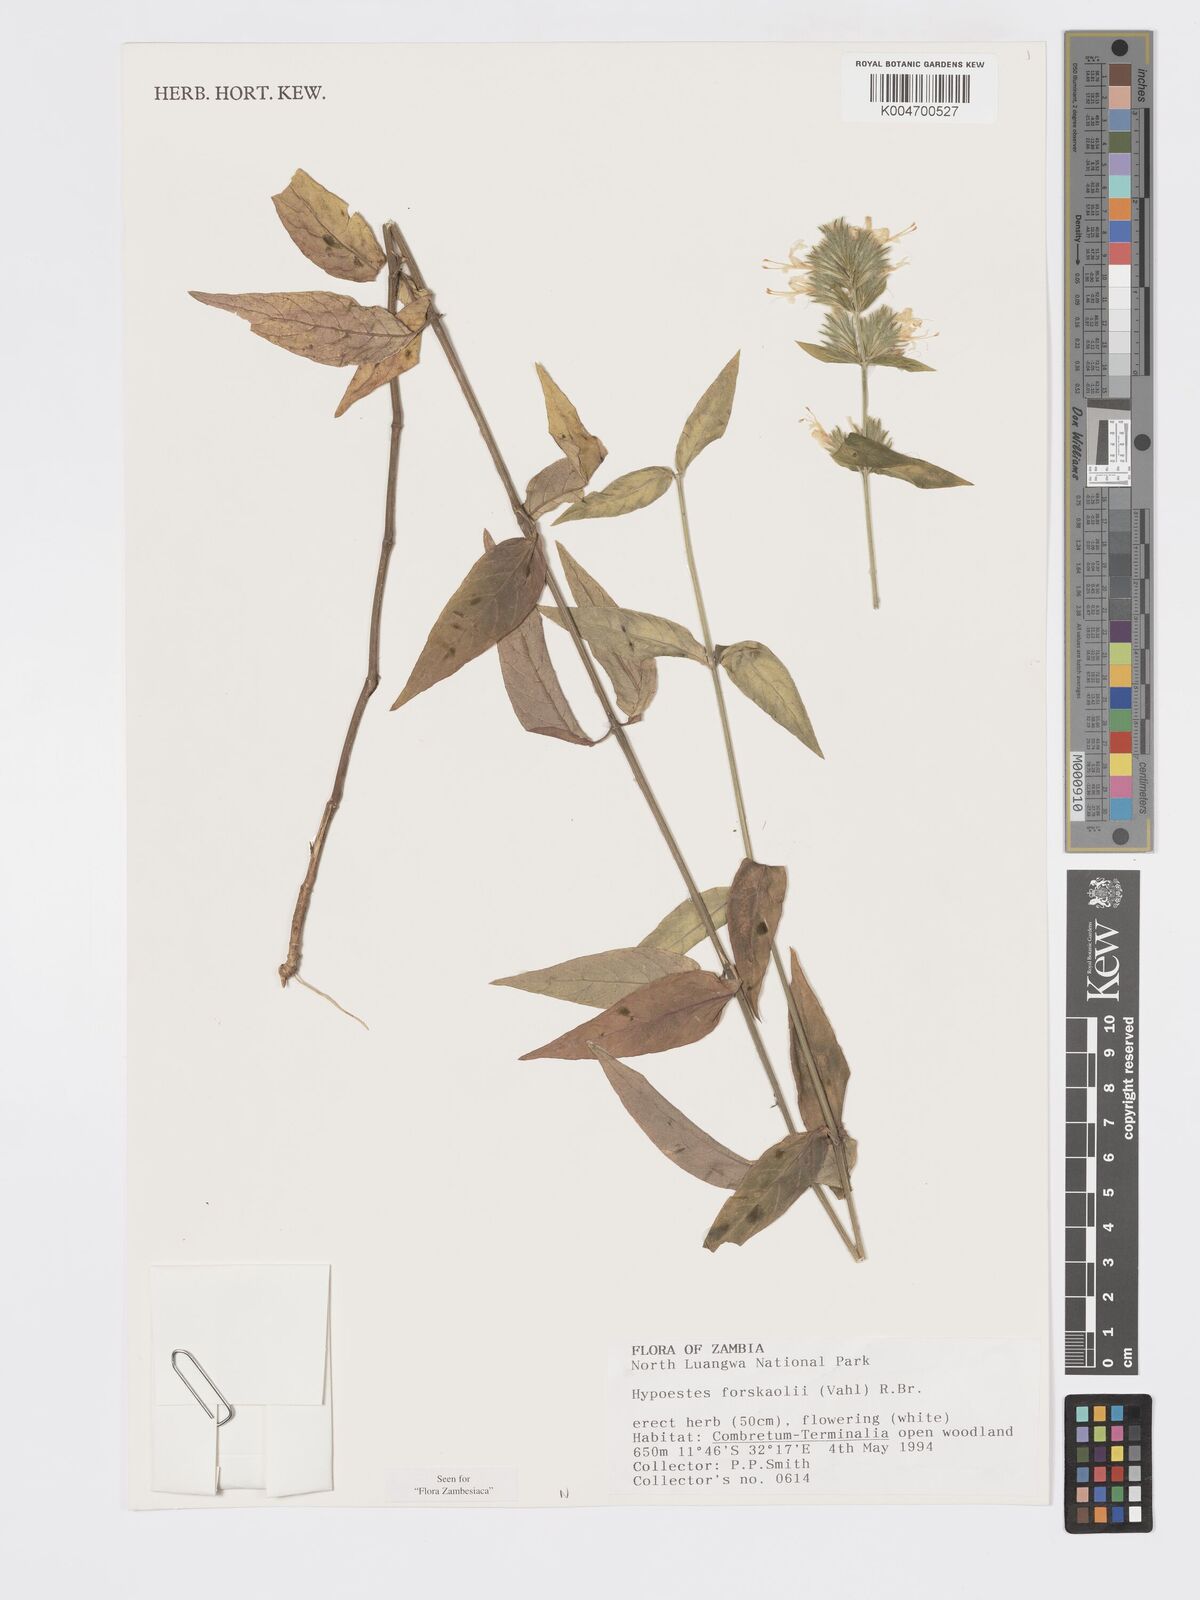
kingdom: Plantae
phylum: Tracheophyta
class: Magnoliopsida
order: Lamiales
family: Acanthaceae
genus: Hypoestes
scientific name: Hypoestes forskaolii
